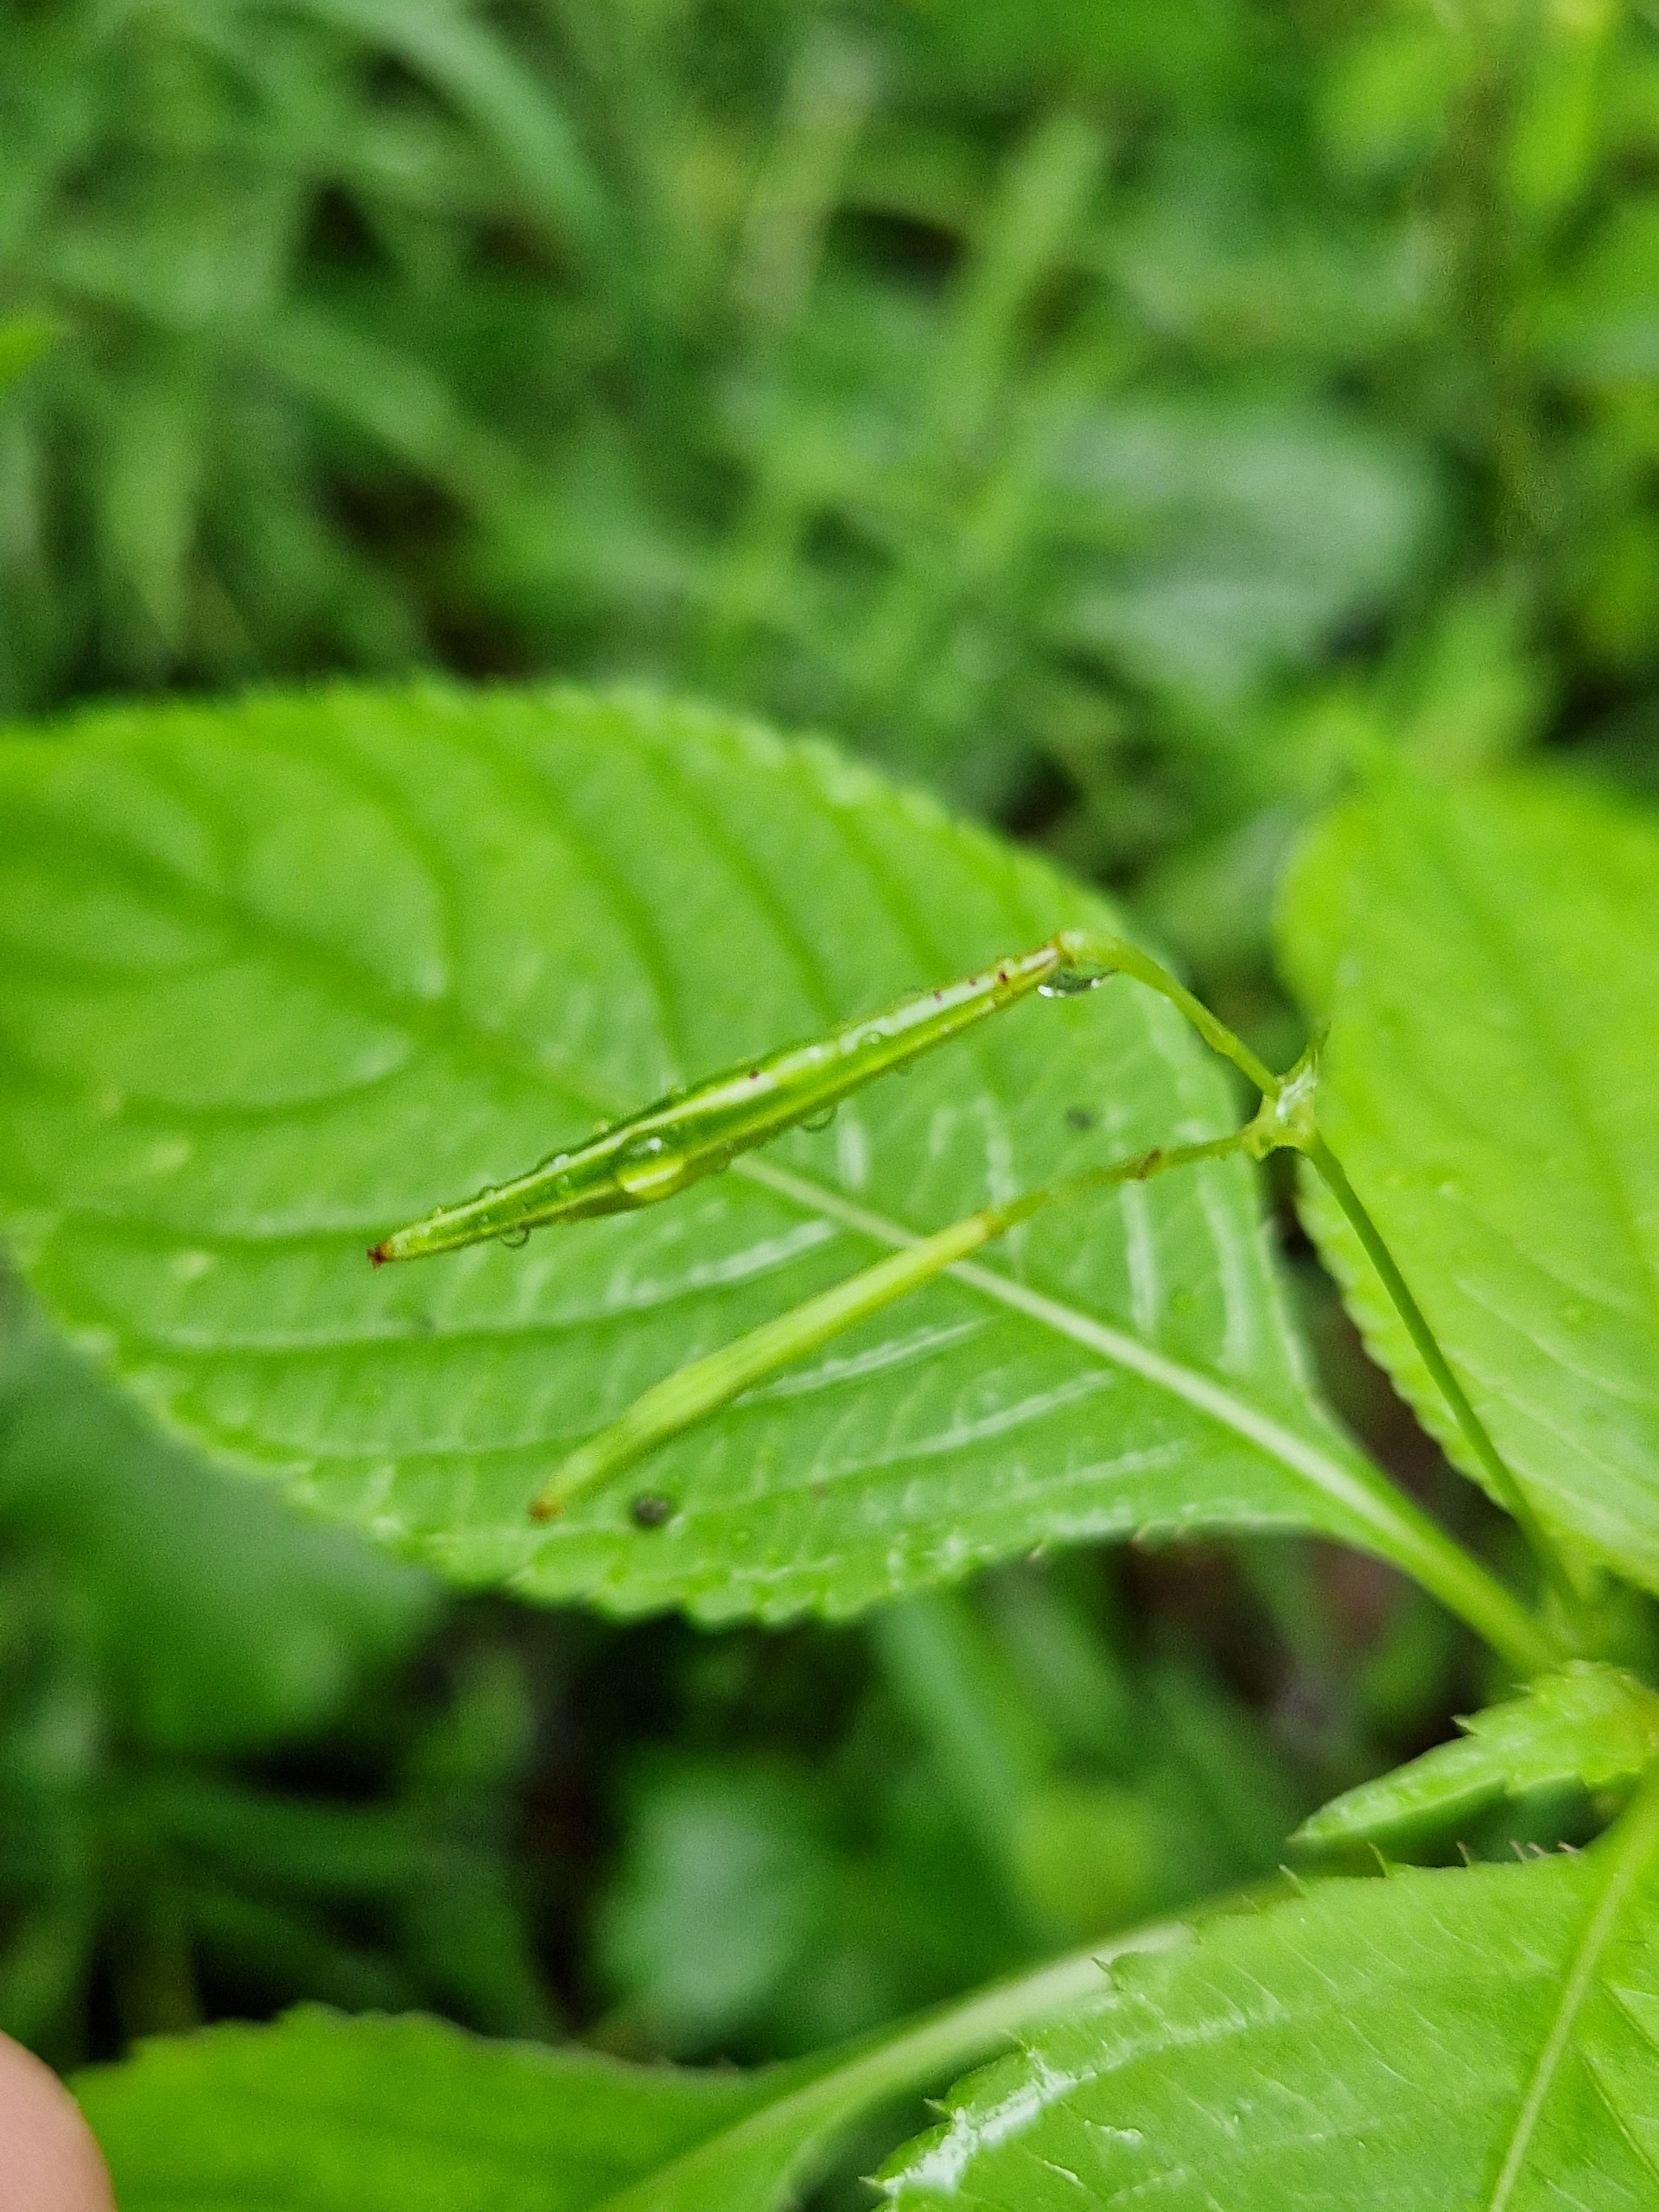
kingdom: Plantae
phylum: Tracheophyta
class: Magnoliopsida
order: Ericales
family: Balsaminaceae
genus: Impatiens
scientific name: Impatiens parviflora
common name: Småblomstret balsamin
